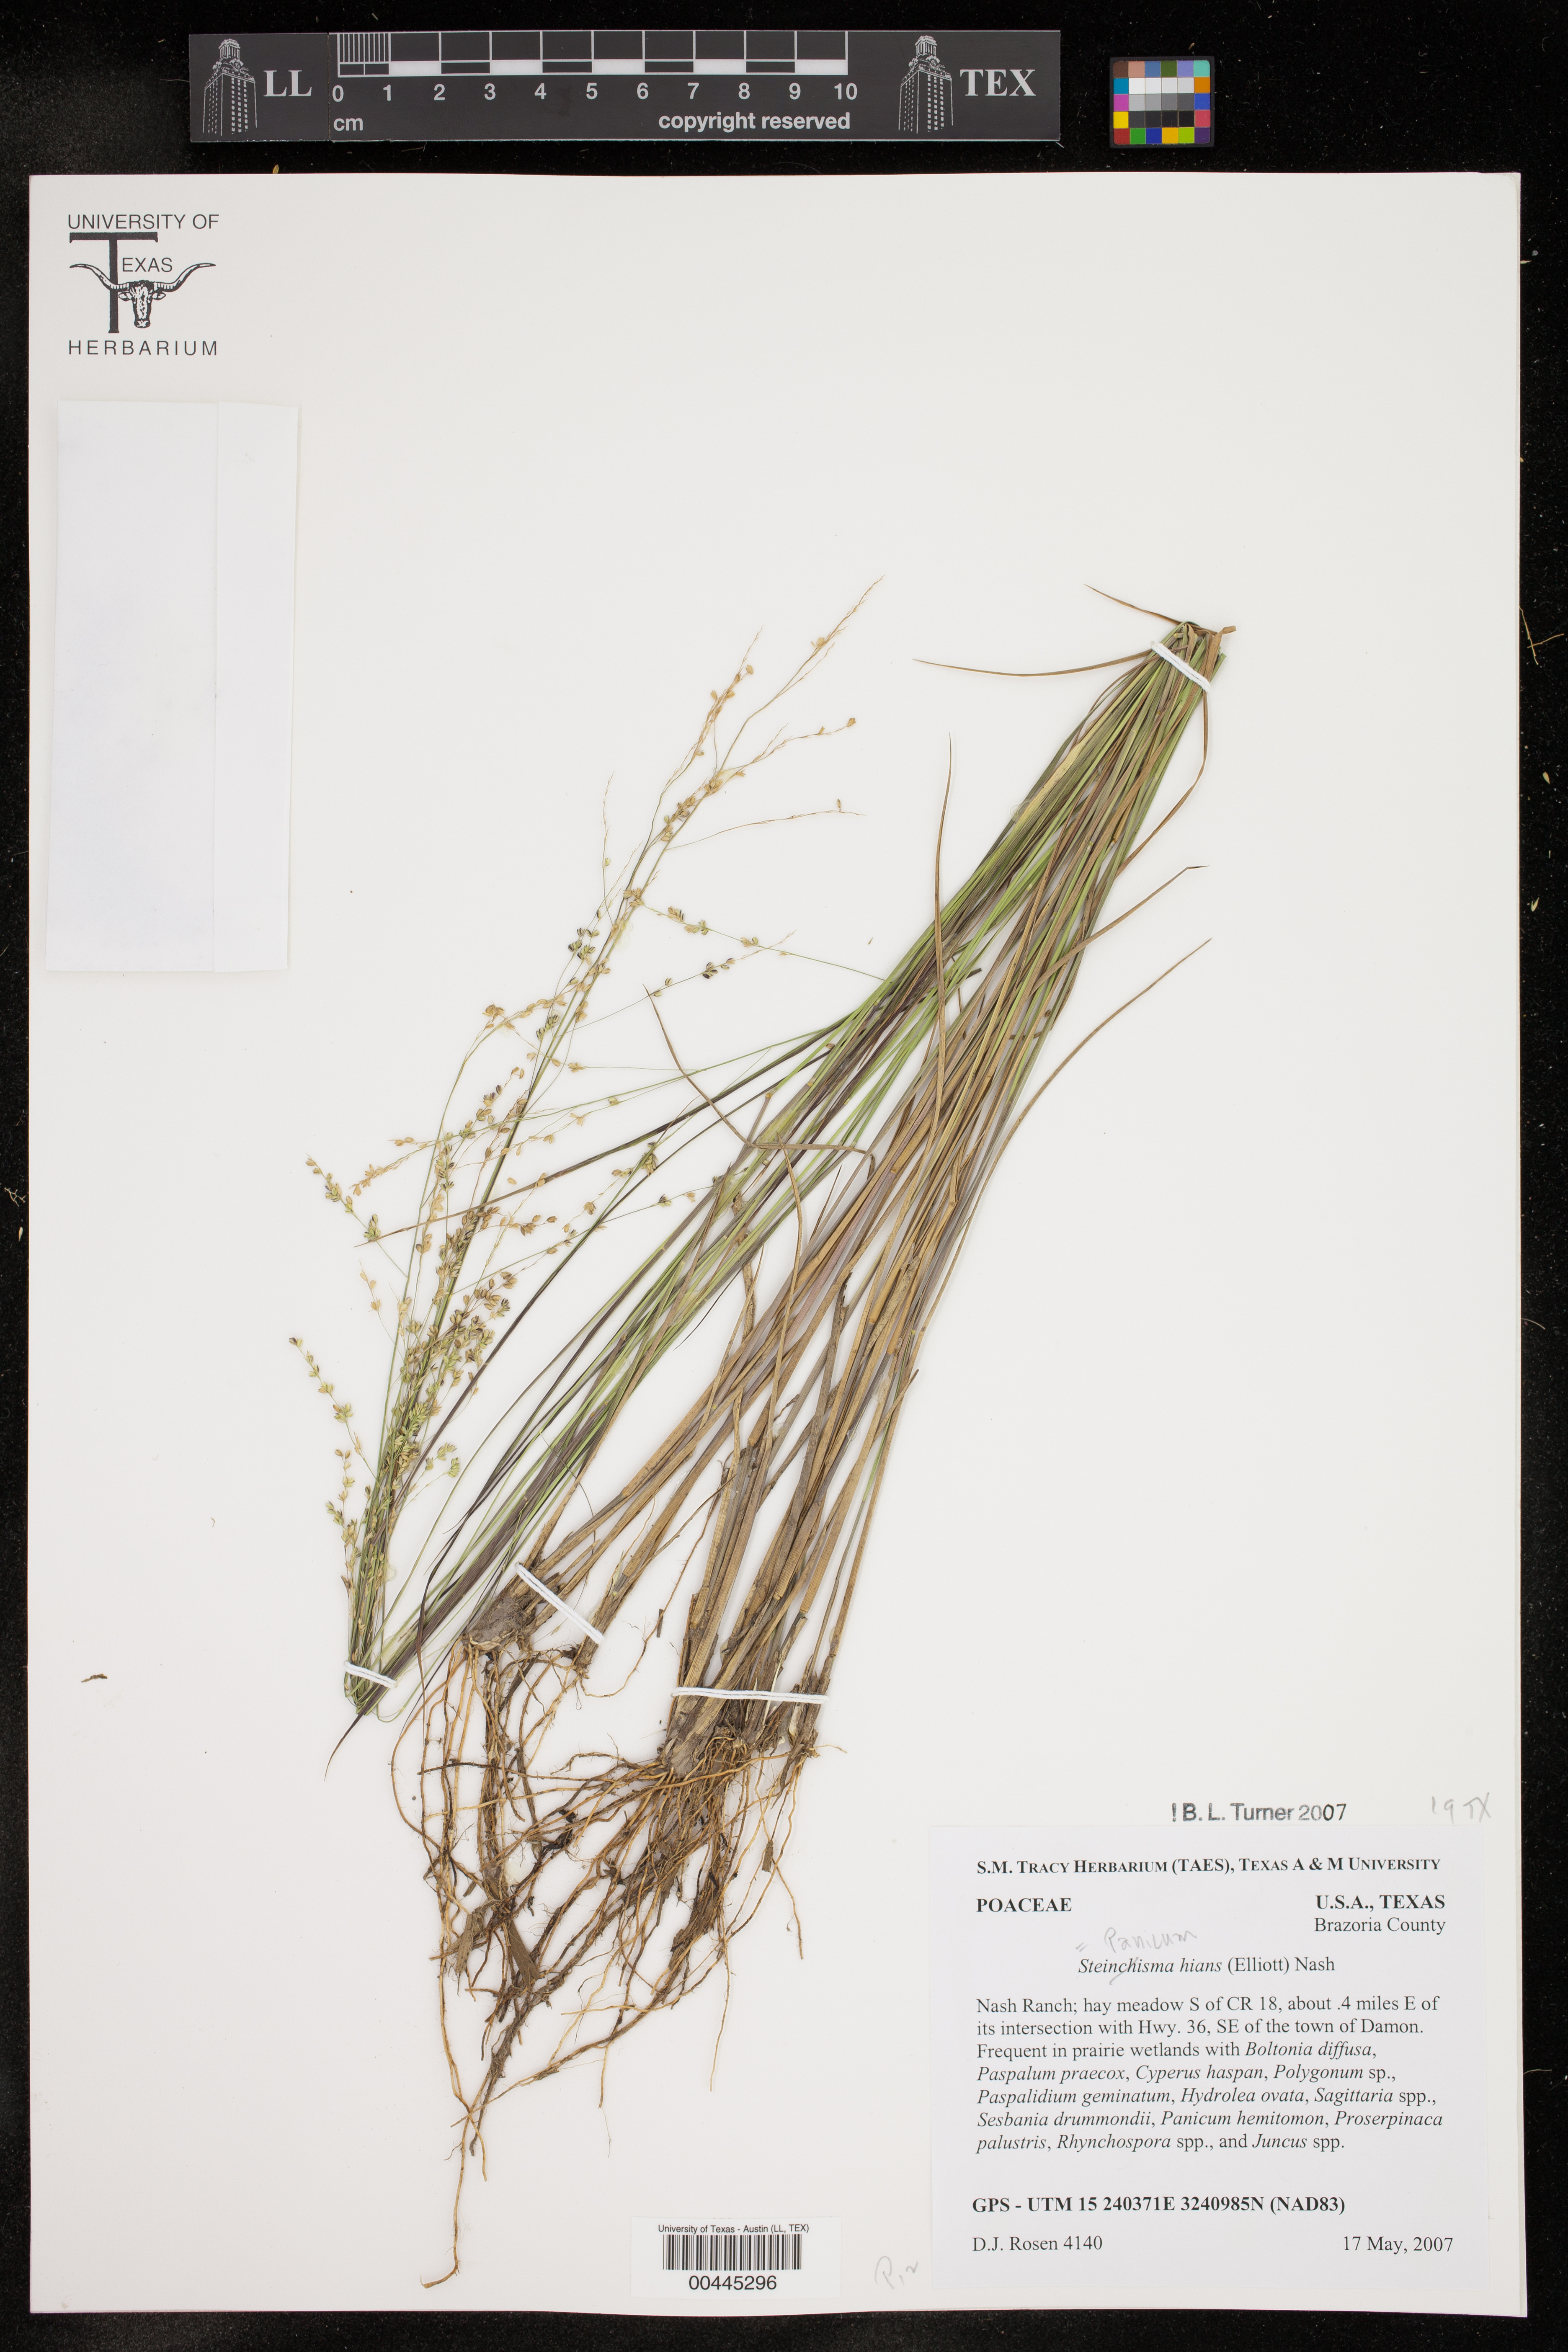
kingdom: Plantae
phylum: Tracheophyta
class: Liliopsida
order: Poales
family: Poaceae
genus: Steinchisma
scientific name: Steinchisma hians
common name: Gaping panic grass
